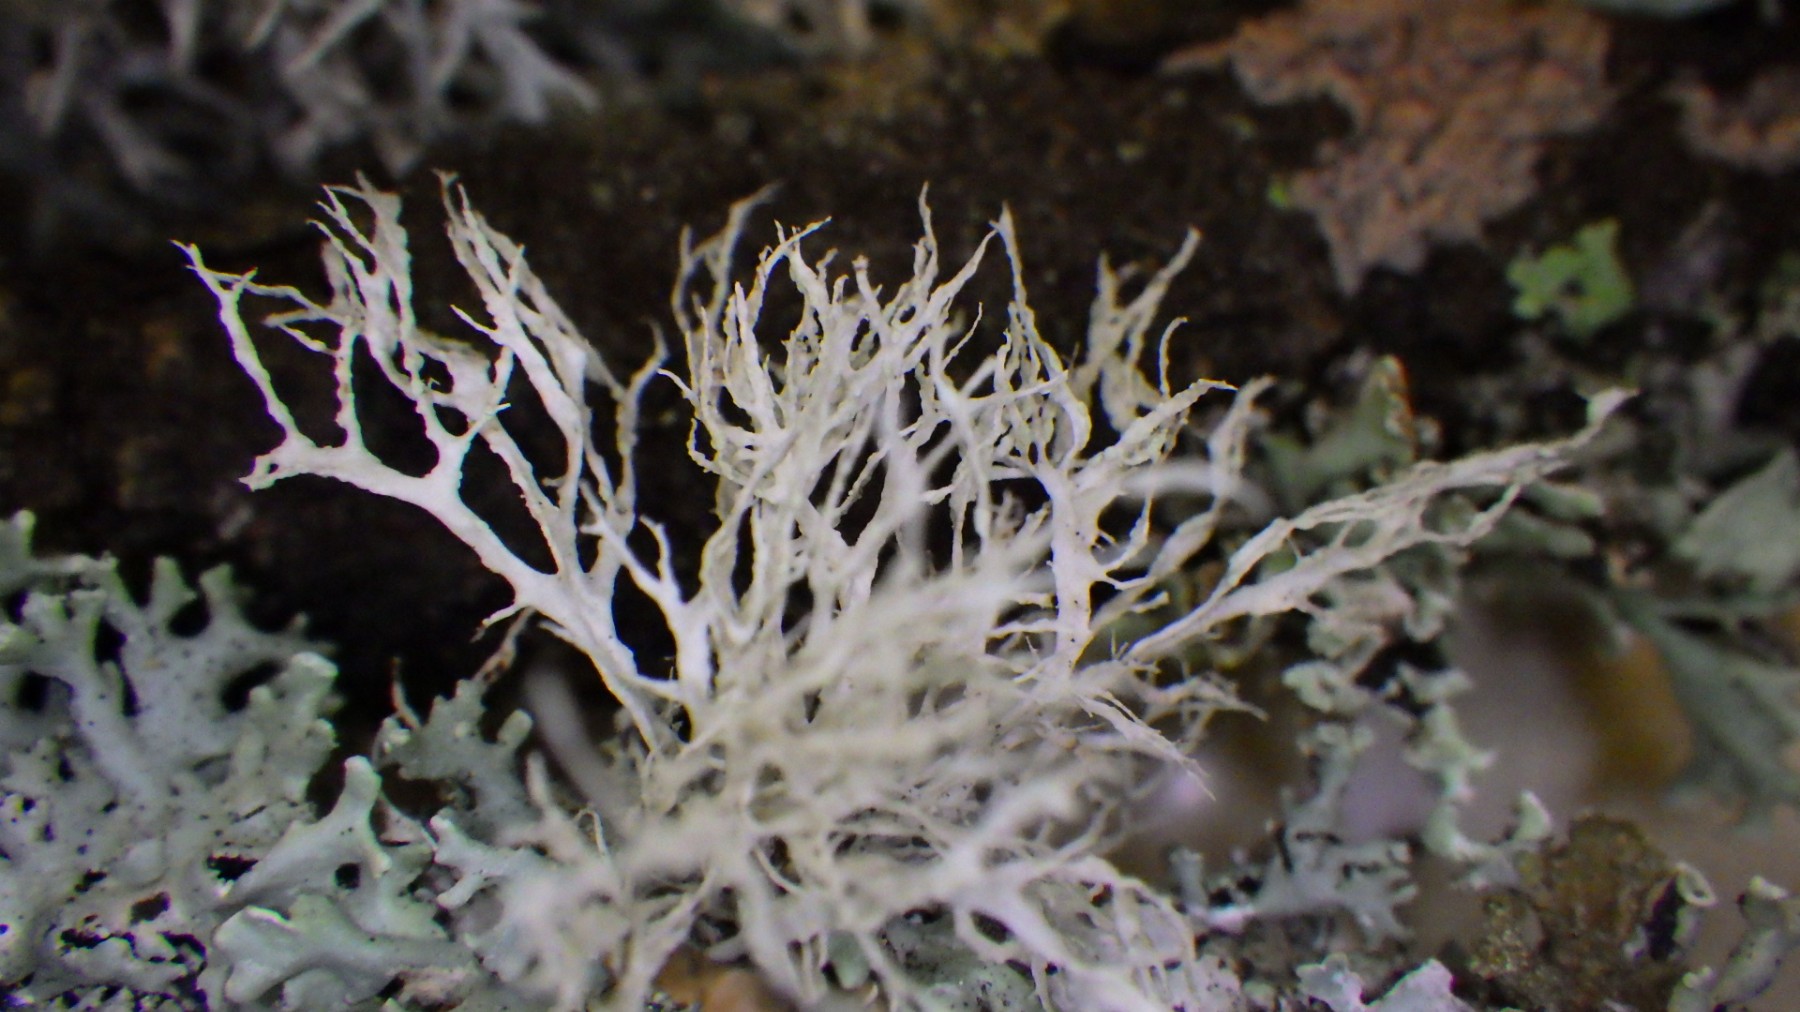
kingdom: Fungi
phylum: Ascomycota
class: Lecanoromycetes
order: Lecanorales
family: Ramalinaceae
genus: Ramalina
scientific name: Ramalina farinacea
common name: melet grenlav
